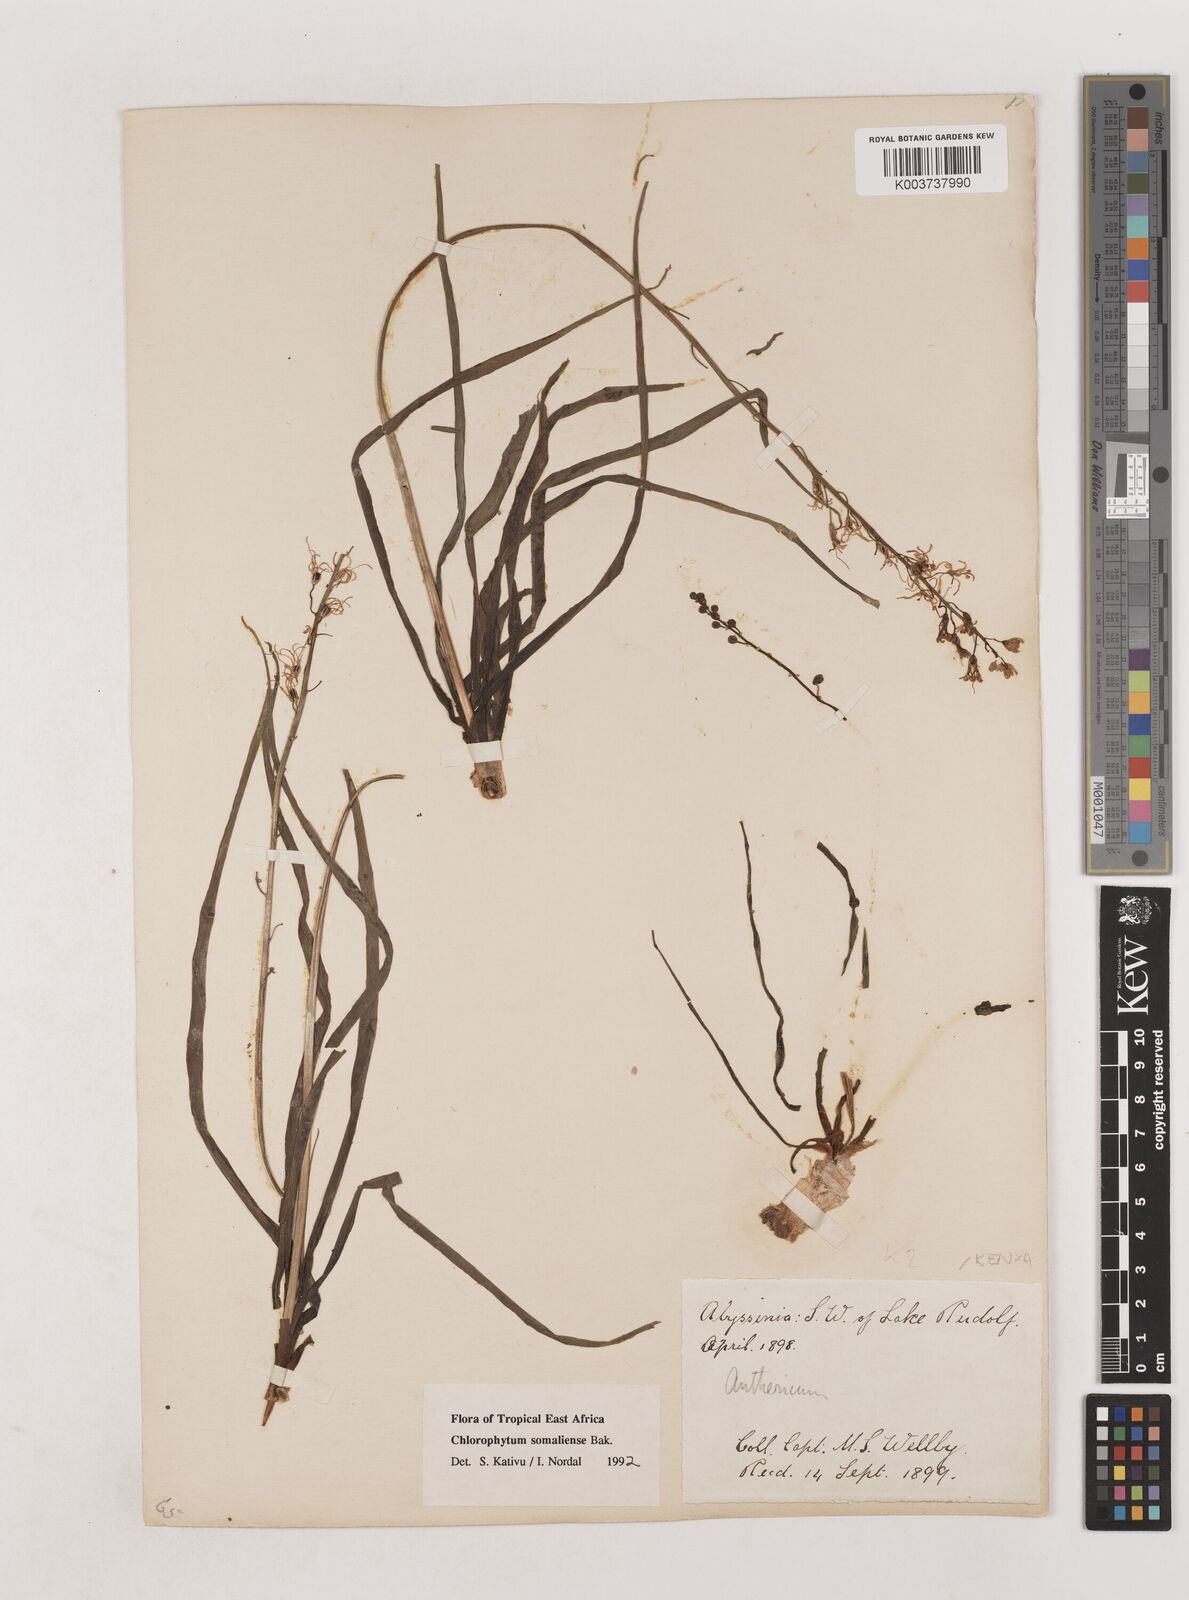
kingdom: Plantae
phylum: Tracheophyta
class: Liliopsida
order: Asparagales
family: Asparagaceae
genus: Chlorophytum
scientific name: Chlorophytum somaliense
